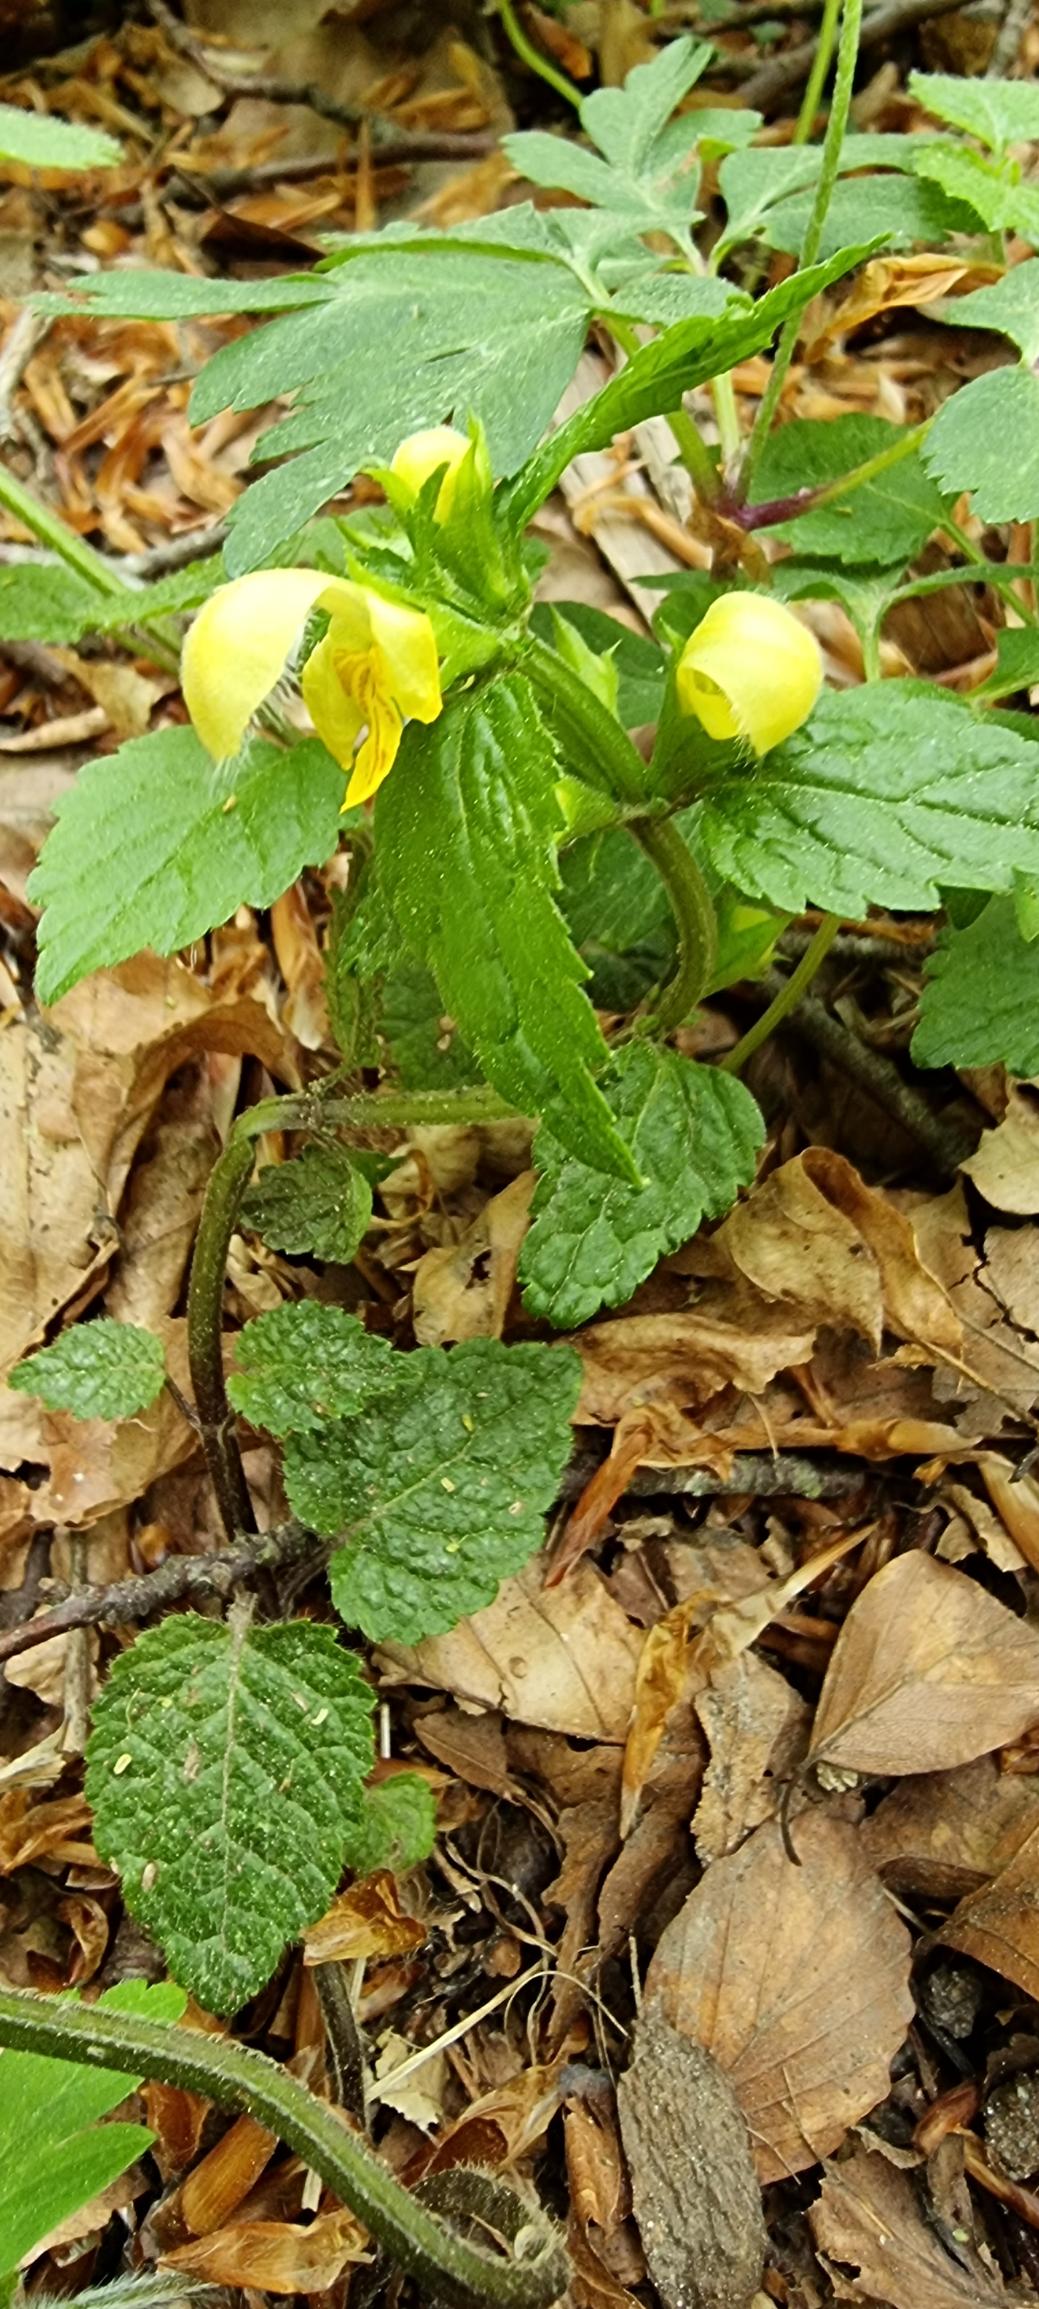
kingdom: Plantae
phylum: Tracheophyta
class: Magnoliopsida
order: Lamiales
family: Lamiaceae
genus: Lamium
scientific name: Lamium galeobdolon
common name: Guldnælde
